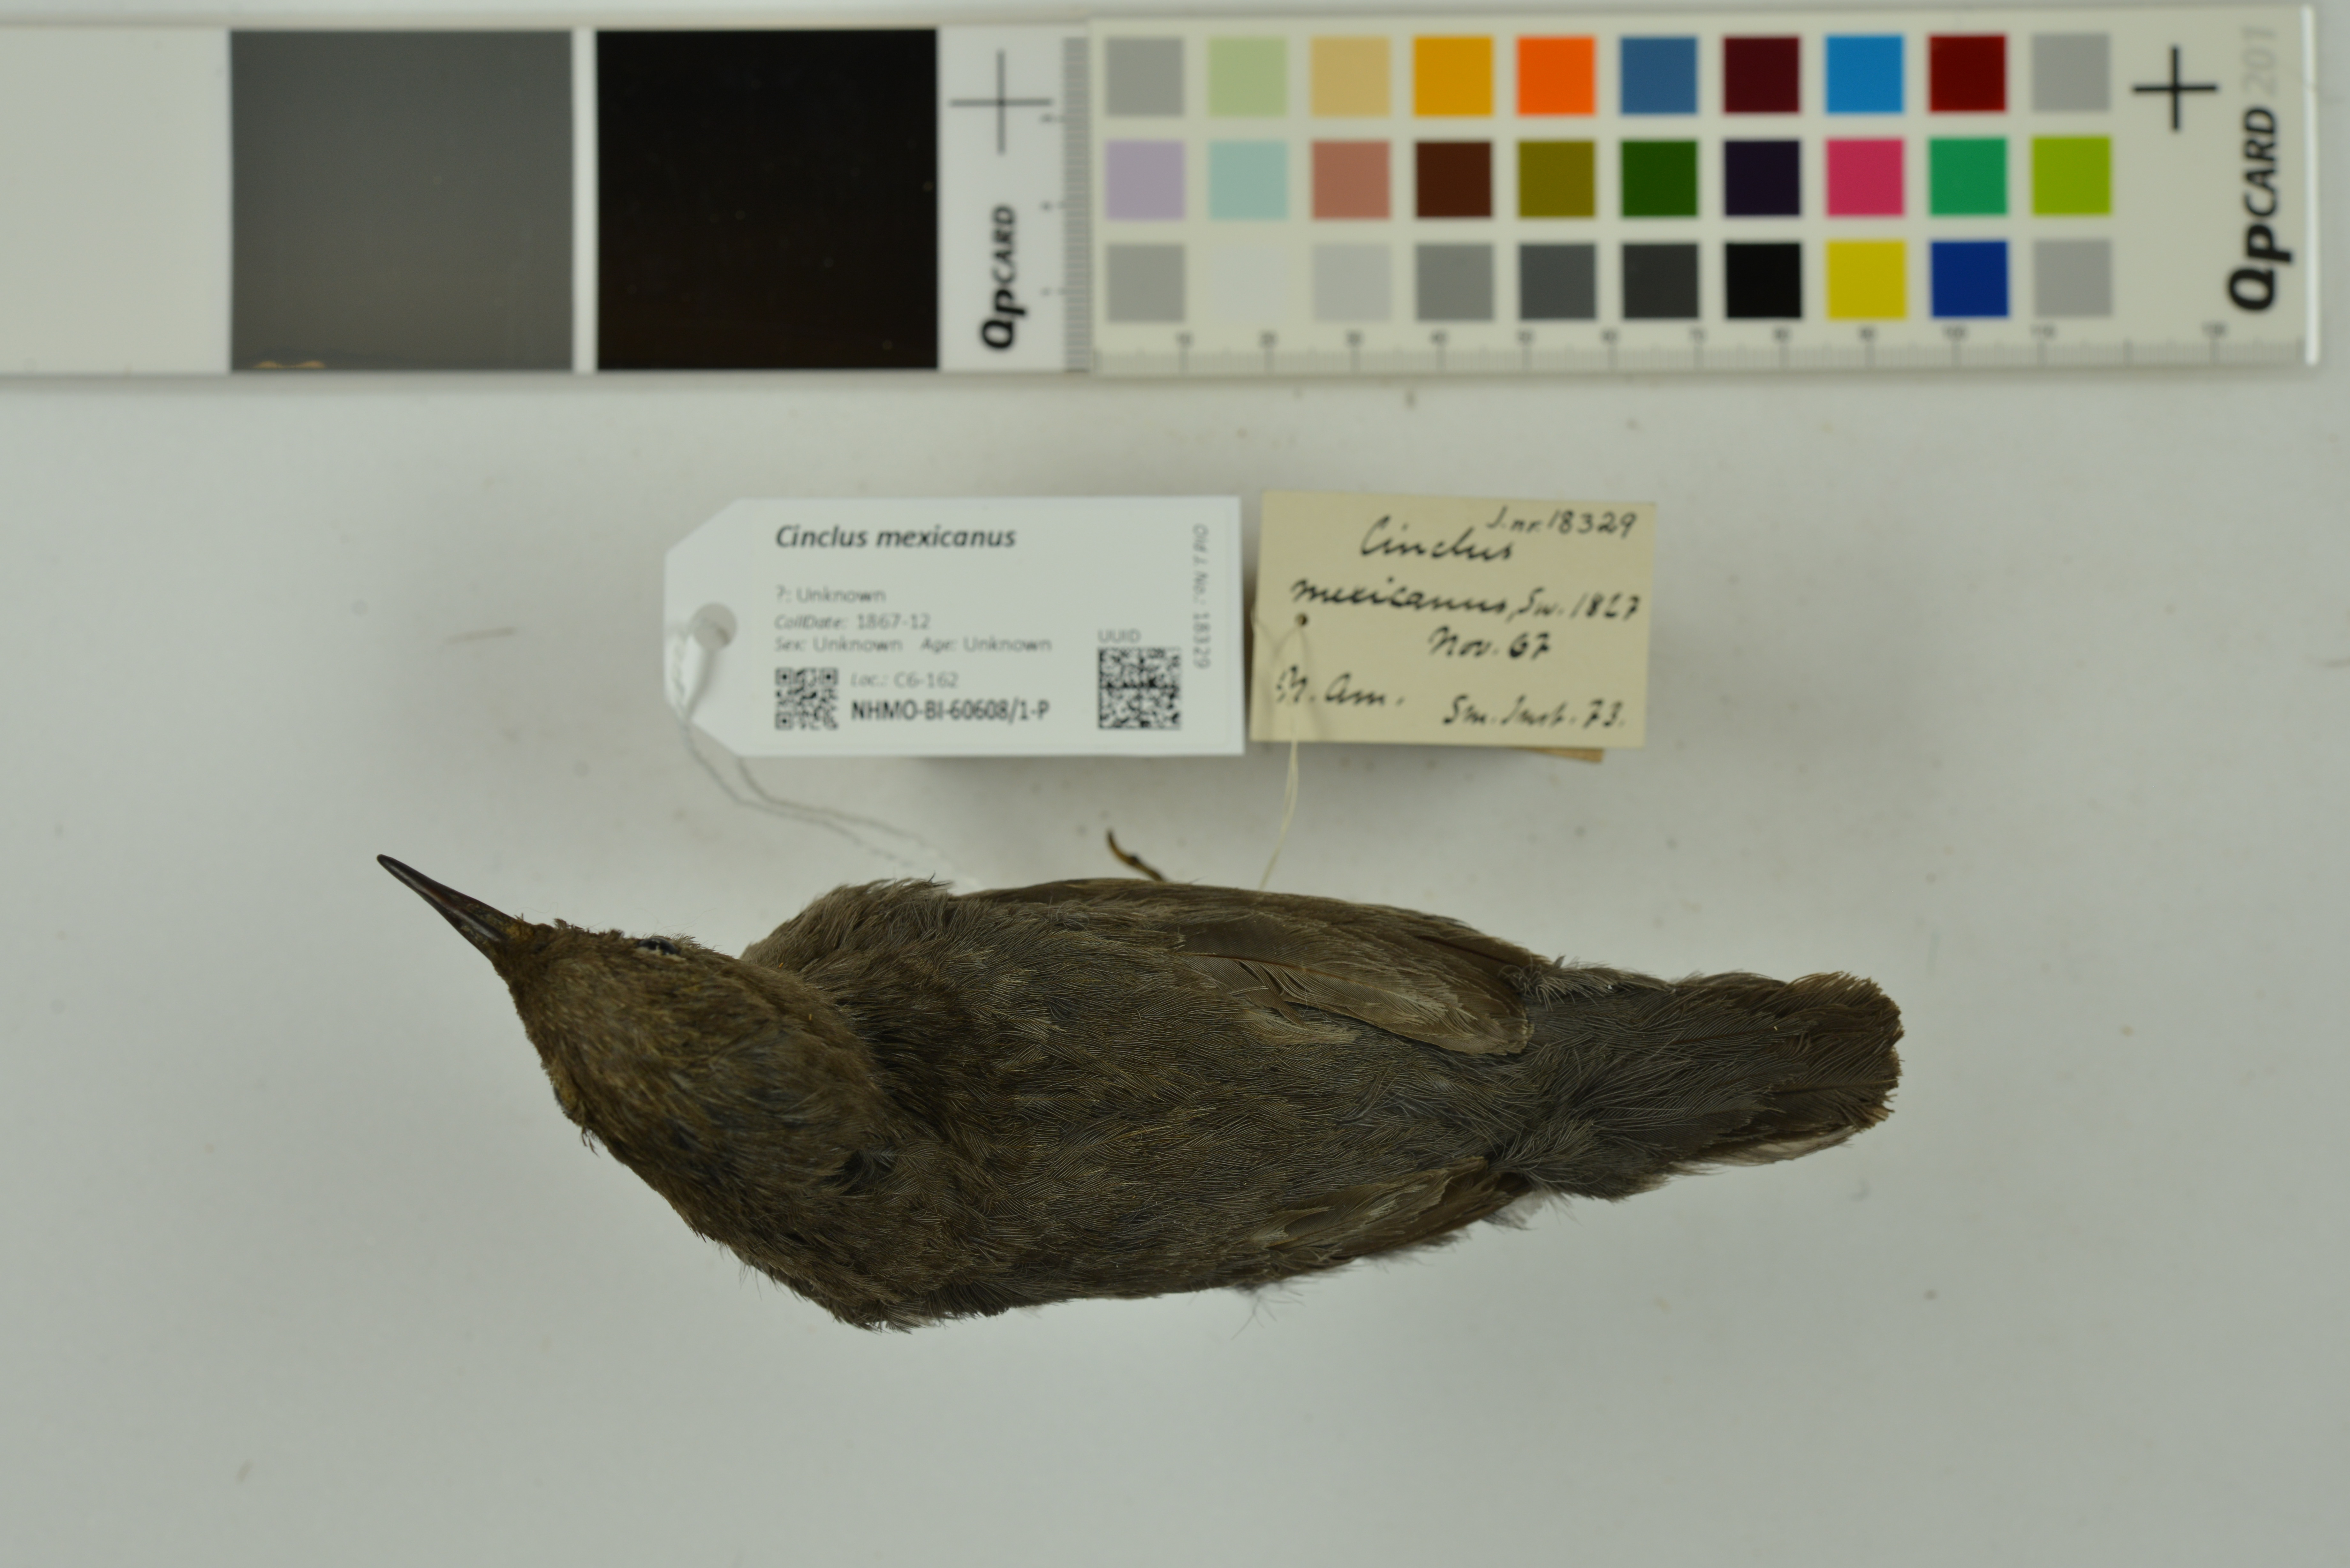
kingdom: Animalia
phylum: Chordata
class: Aves
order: Passeriformes
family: Cinclidae
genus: Cinclus
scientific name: Cinclus mexicanus
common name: American dipper
